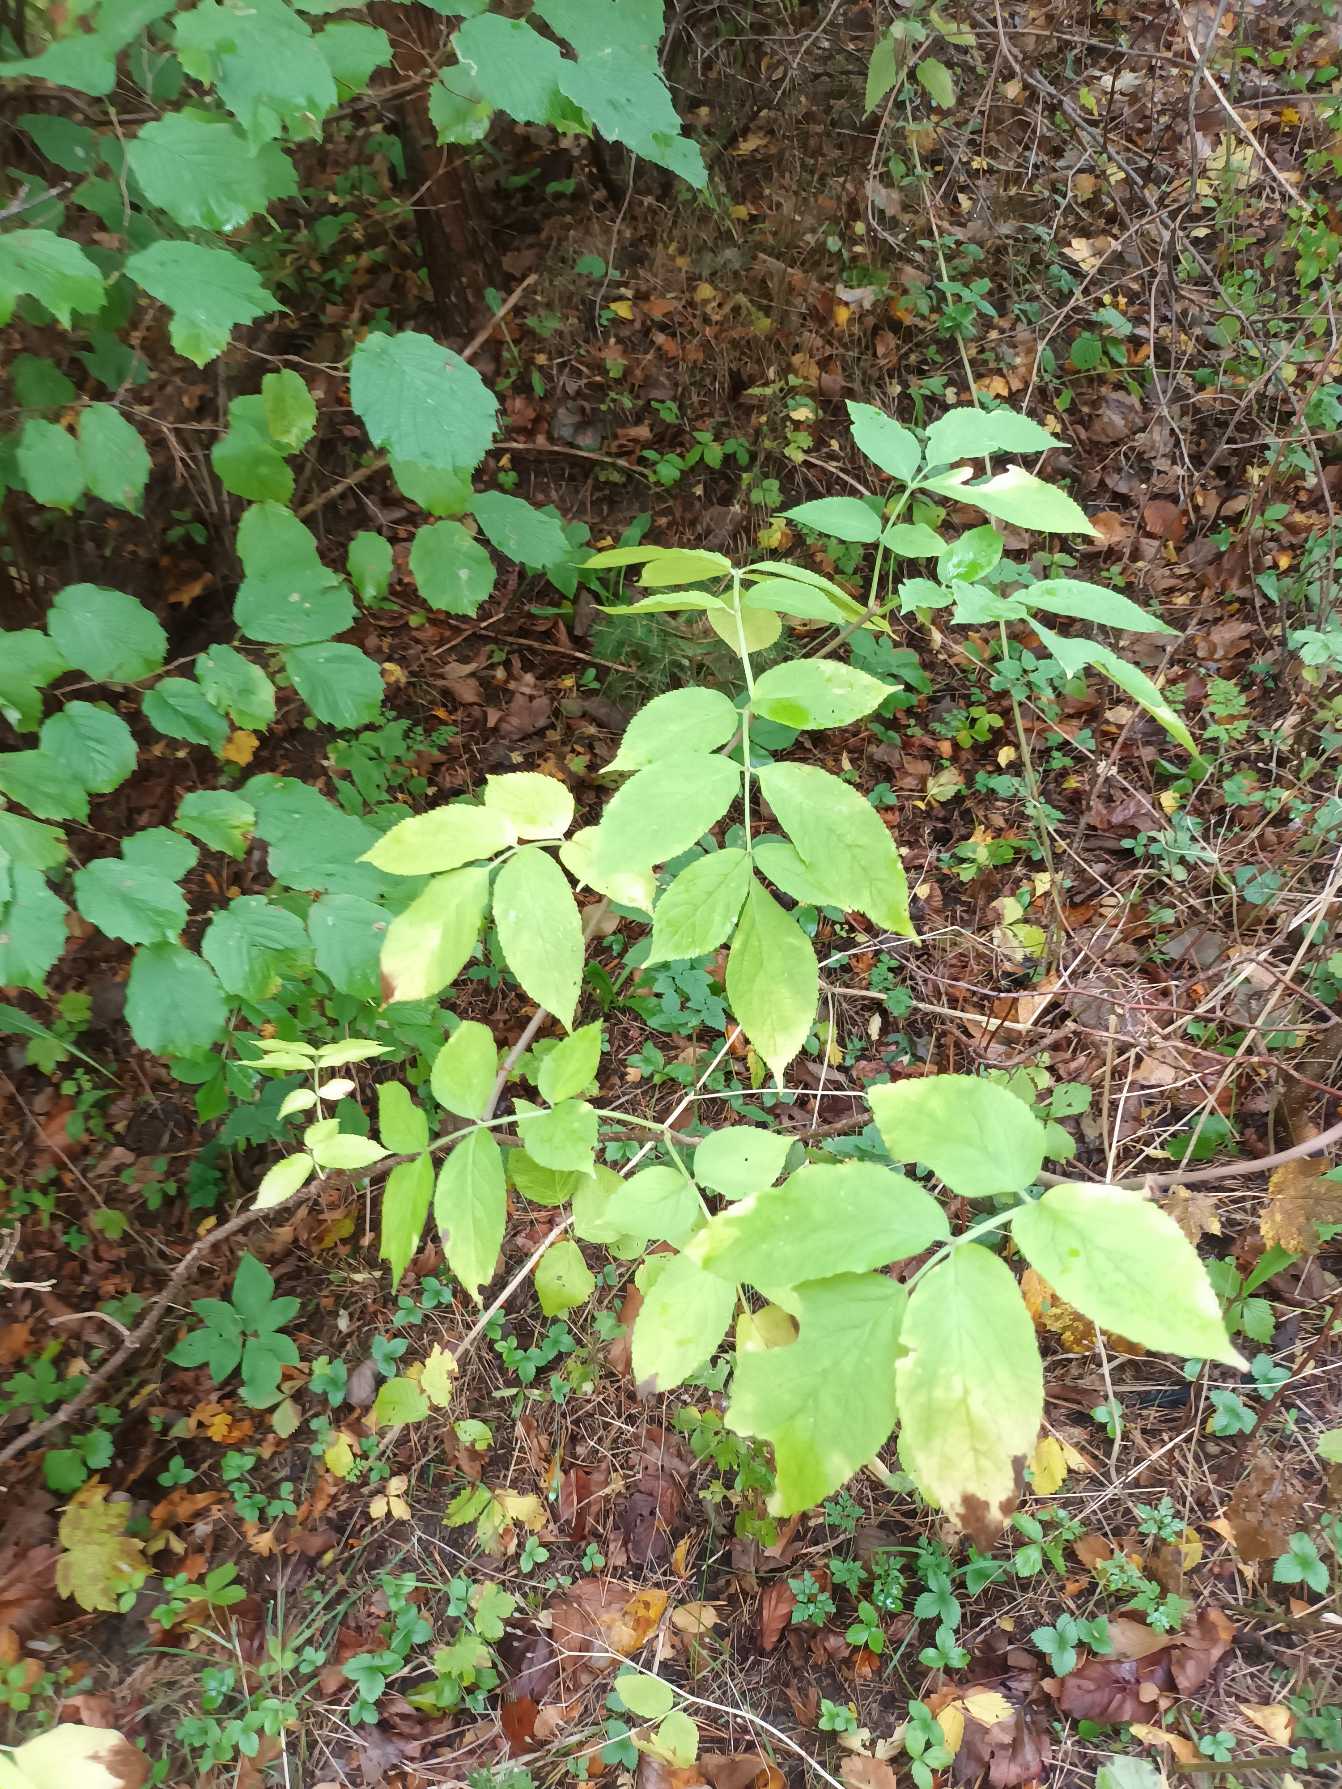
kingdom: Plantae
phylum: Tracheophyta
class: Magnoliopsida
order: Dipsacales
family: Viburnaceae
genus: Sambucus
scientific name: Sambucus nigra
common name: Almindelig hyld
